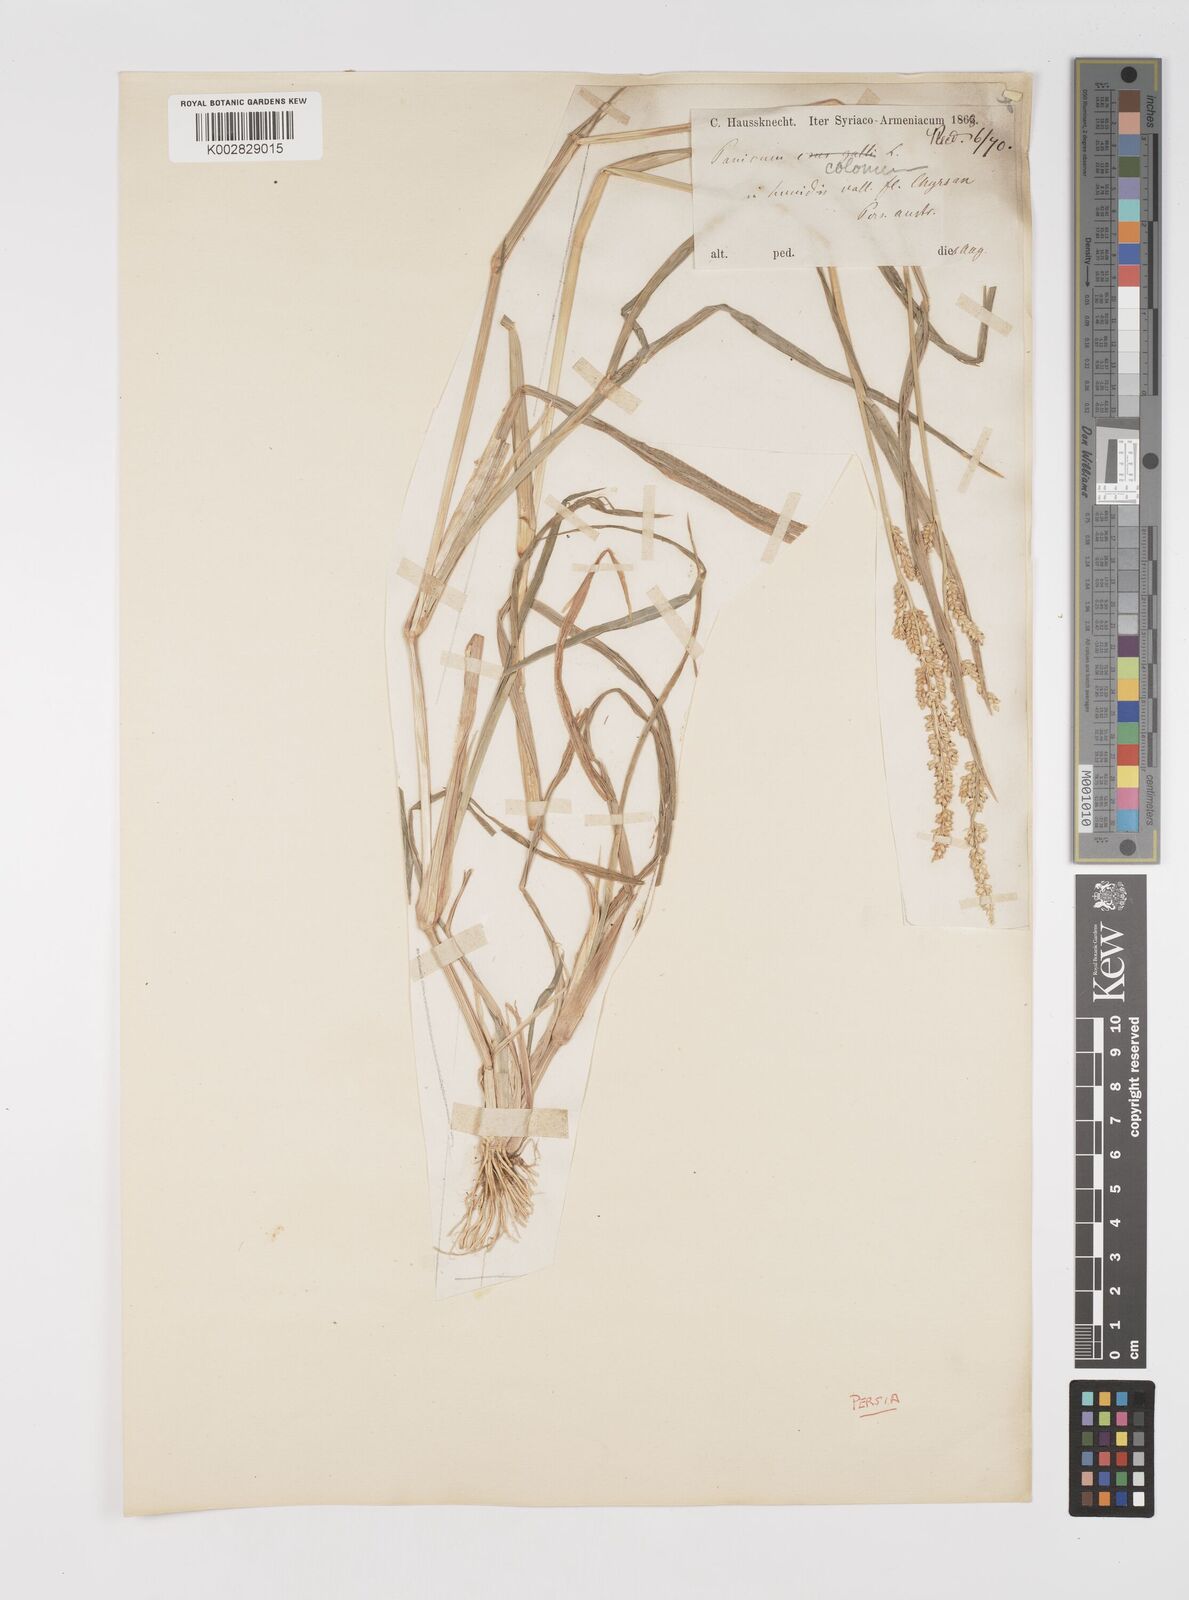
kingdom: Plantae
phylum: Tracheophyta
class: Liliopsida
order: Poales
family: Poaceae
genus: Echinochloa
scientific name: Echinochloa colonum
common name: Jungle rice
